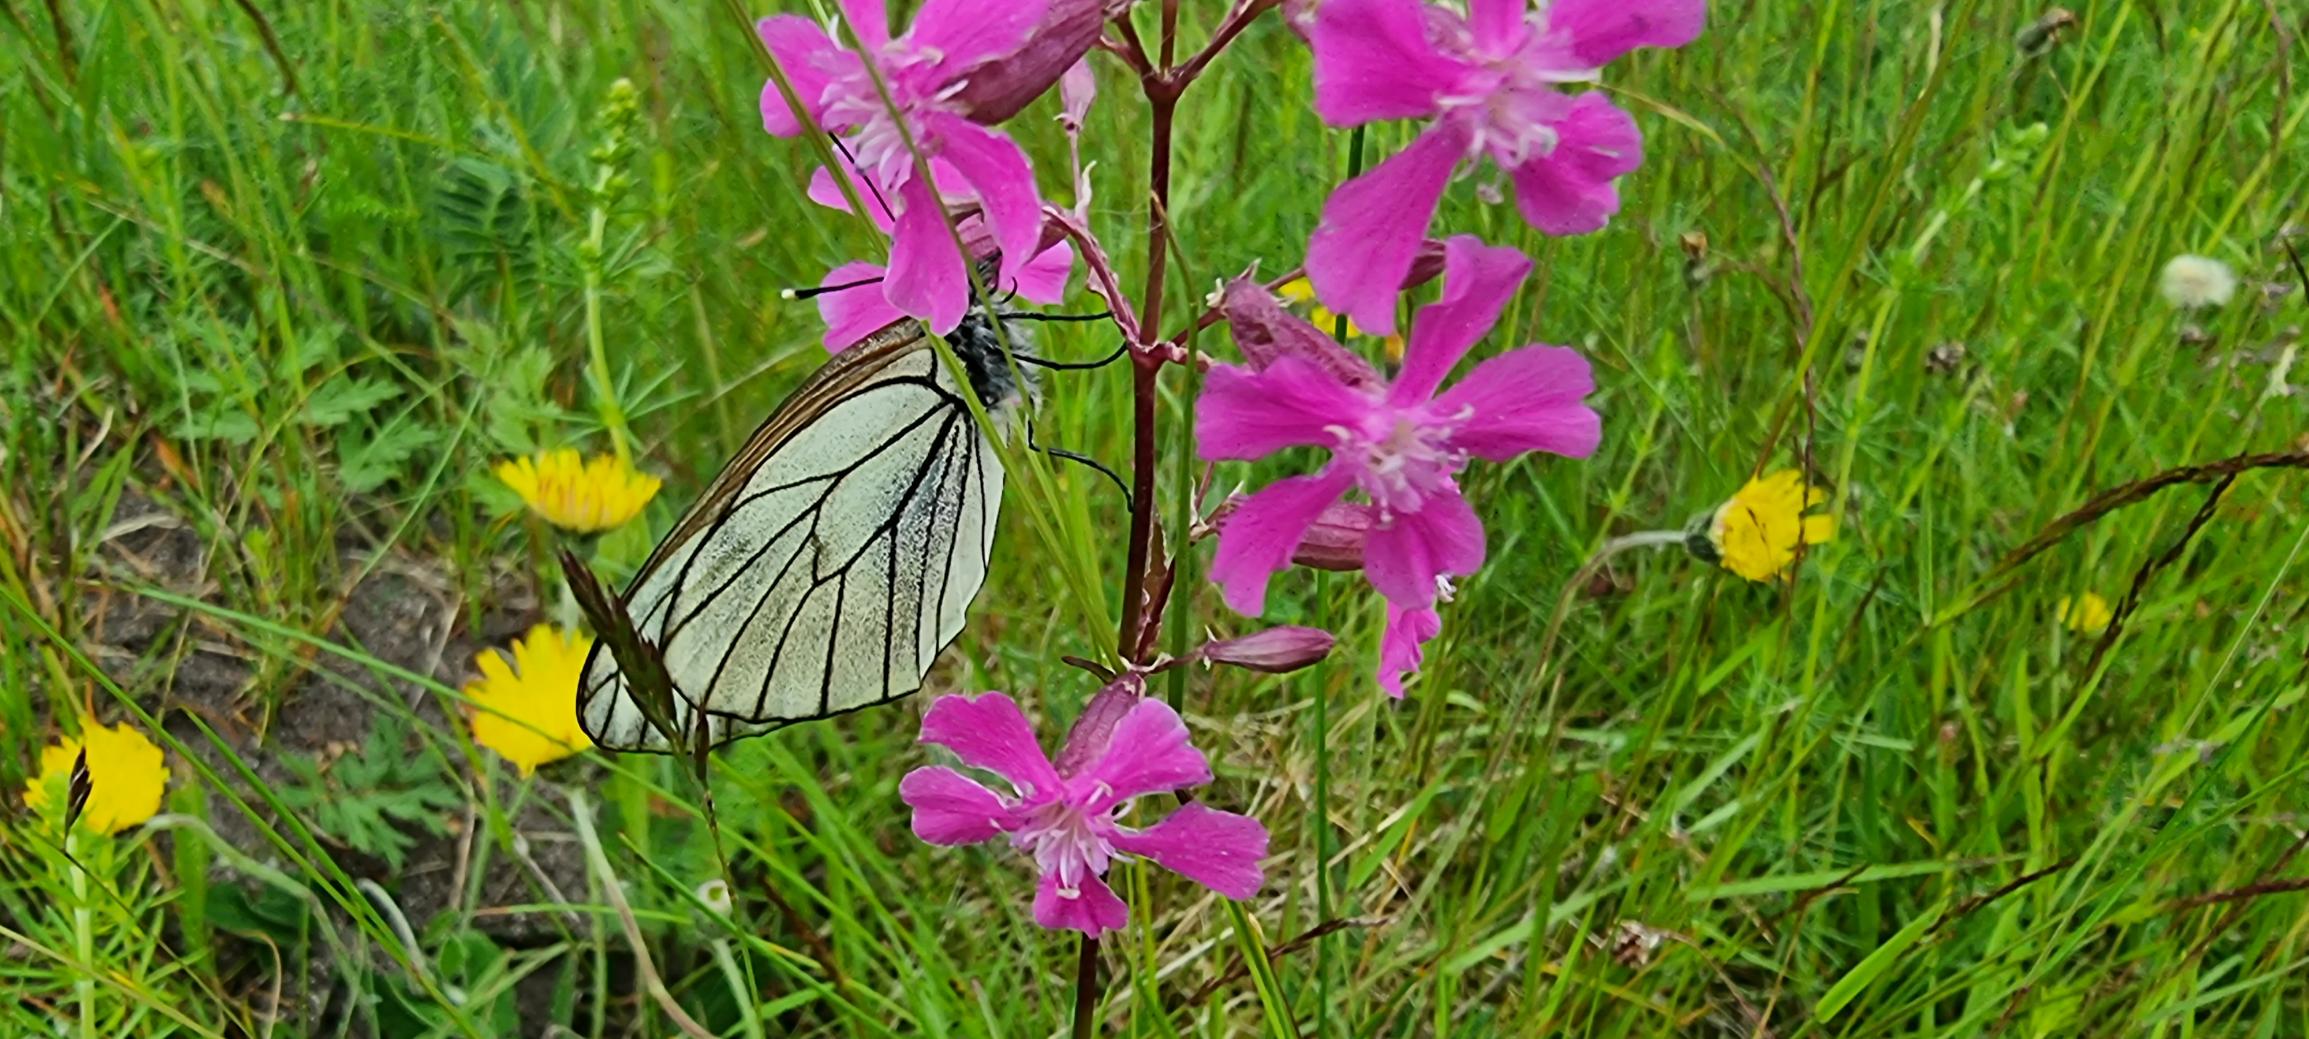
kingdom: Animalia
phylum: Arthropoda
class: Insecta
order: Lepidoptera
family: Pieridae
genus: Aporia
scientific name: Aporia crataegi
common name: Sortåret hvidvinge
